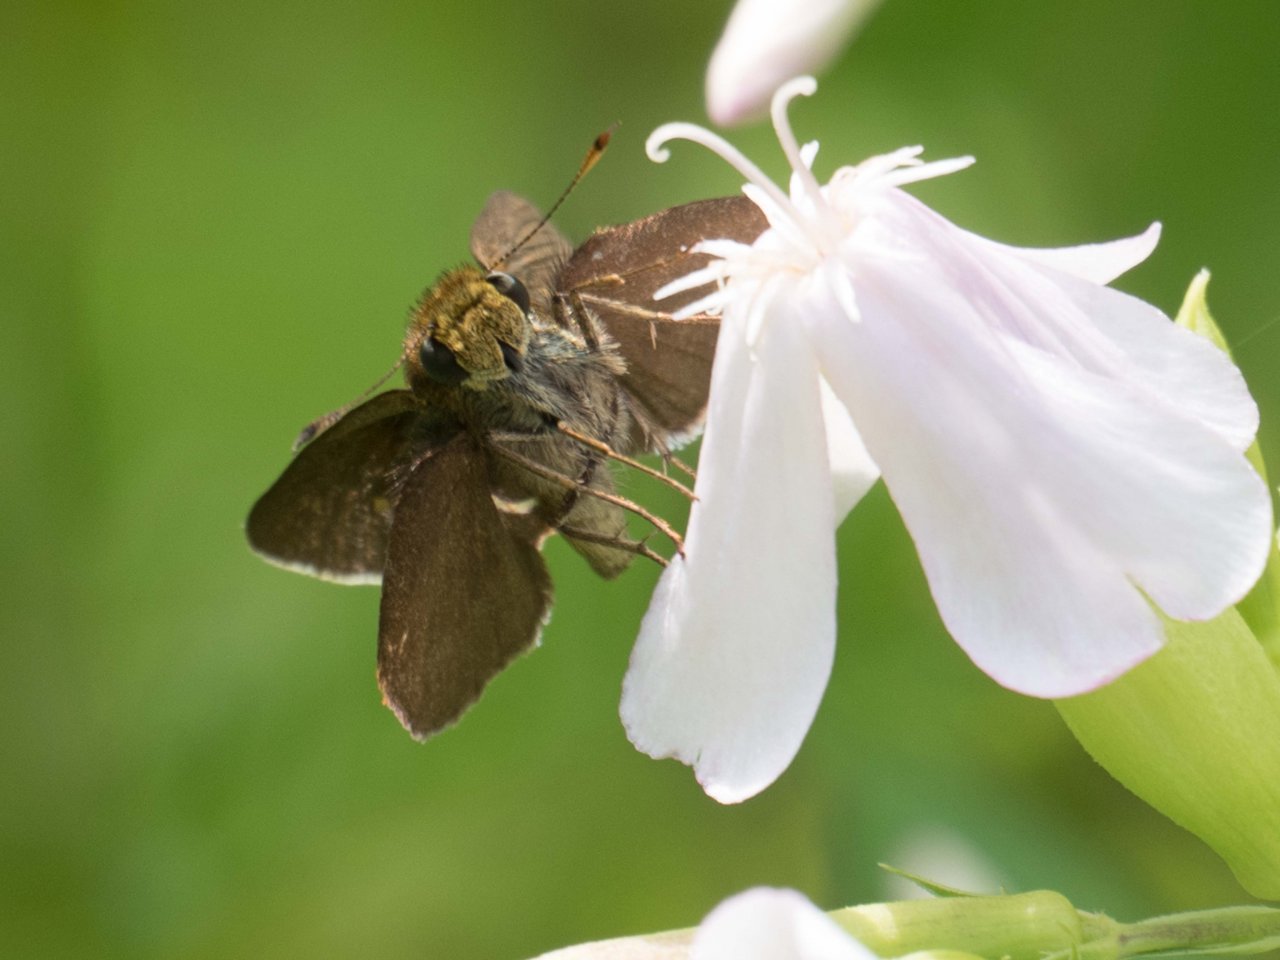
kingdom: Animalia
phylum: Arthropoda
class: Insecta
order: Lepidoptera
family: Hesperiidae
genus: Euphyes
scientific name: Euphyes vestris
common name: Dun Skipper
